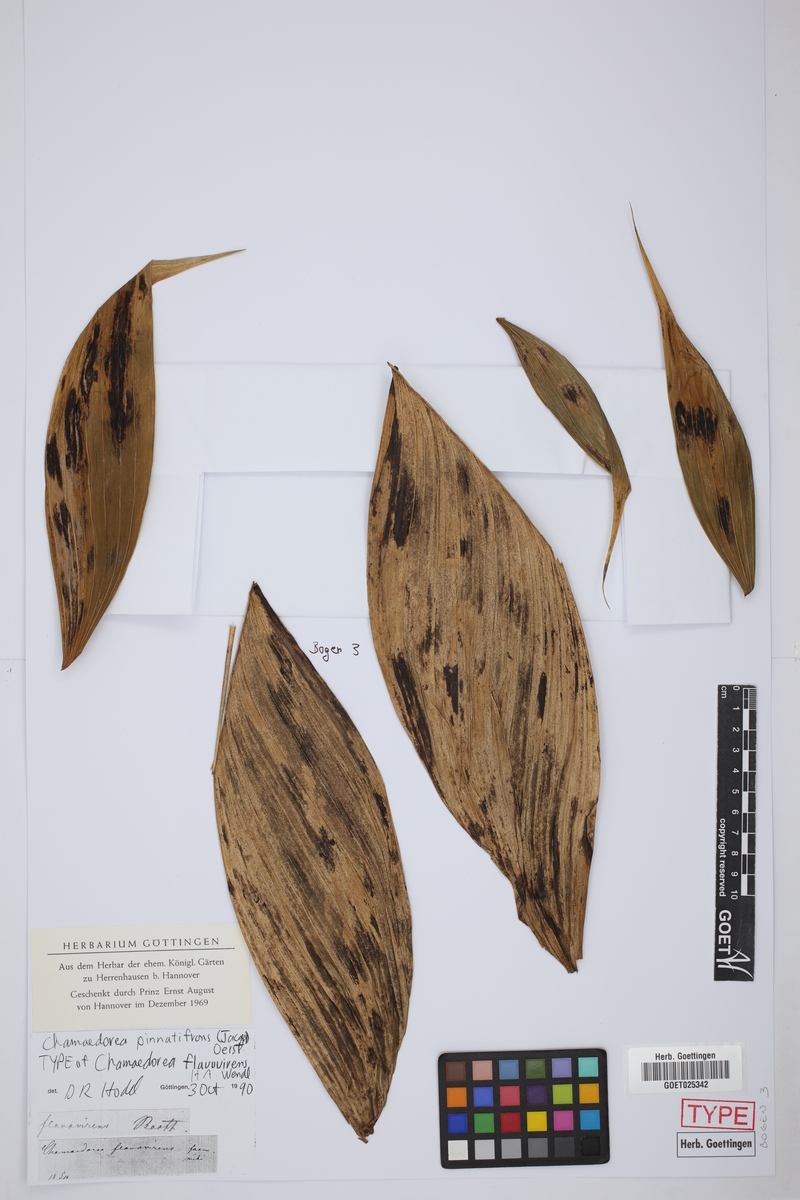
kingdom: Plantae
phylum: Tracheophyta
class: Liliopsida
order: Arecales
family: Arecaceae
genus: Chamaedorea
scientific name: Chamaedorea pinnatifrons
